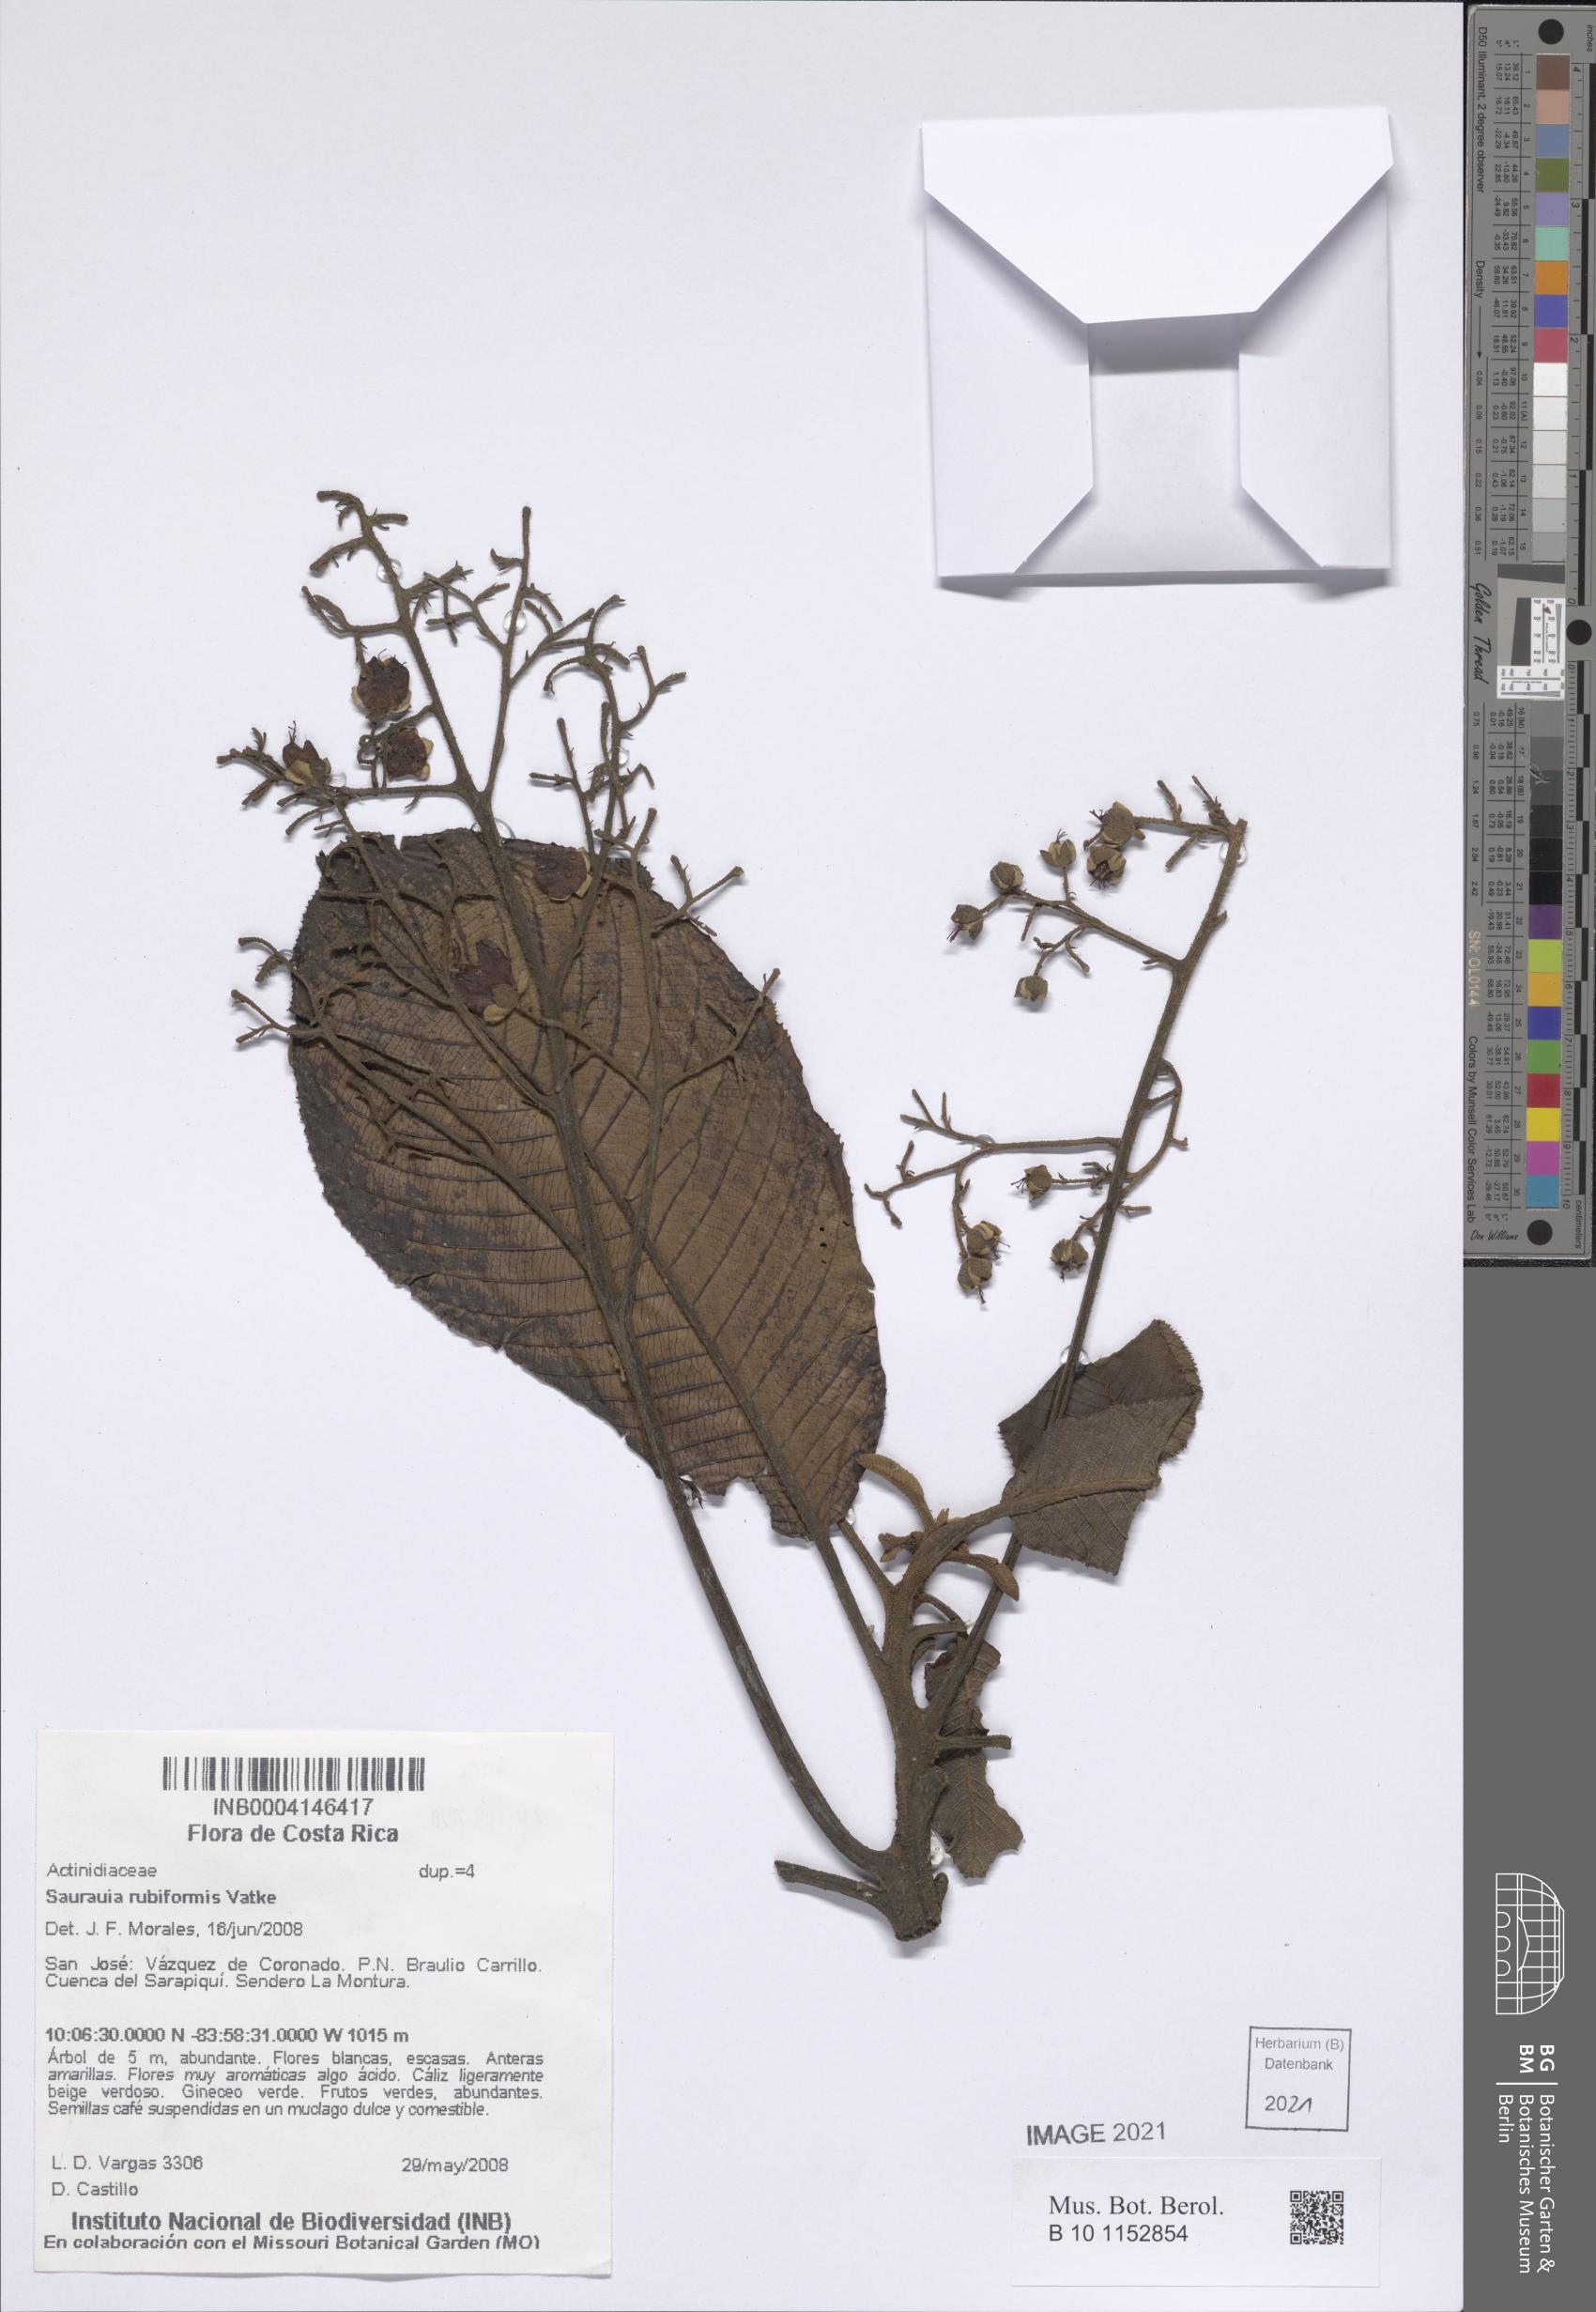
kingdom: Plantae
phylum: Tracheophyta
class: Magnoliopsida
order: Ericales
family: Actinidiaceae
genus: Saurauia
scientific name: Saurauia rubiformis
